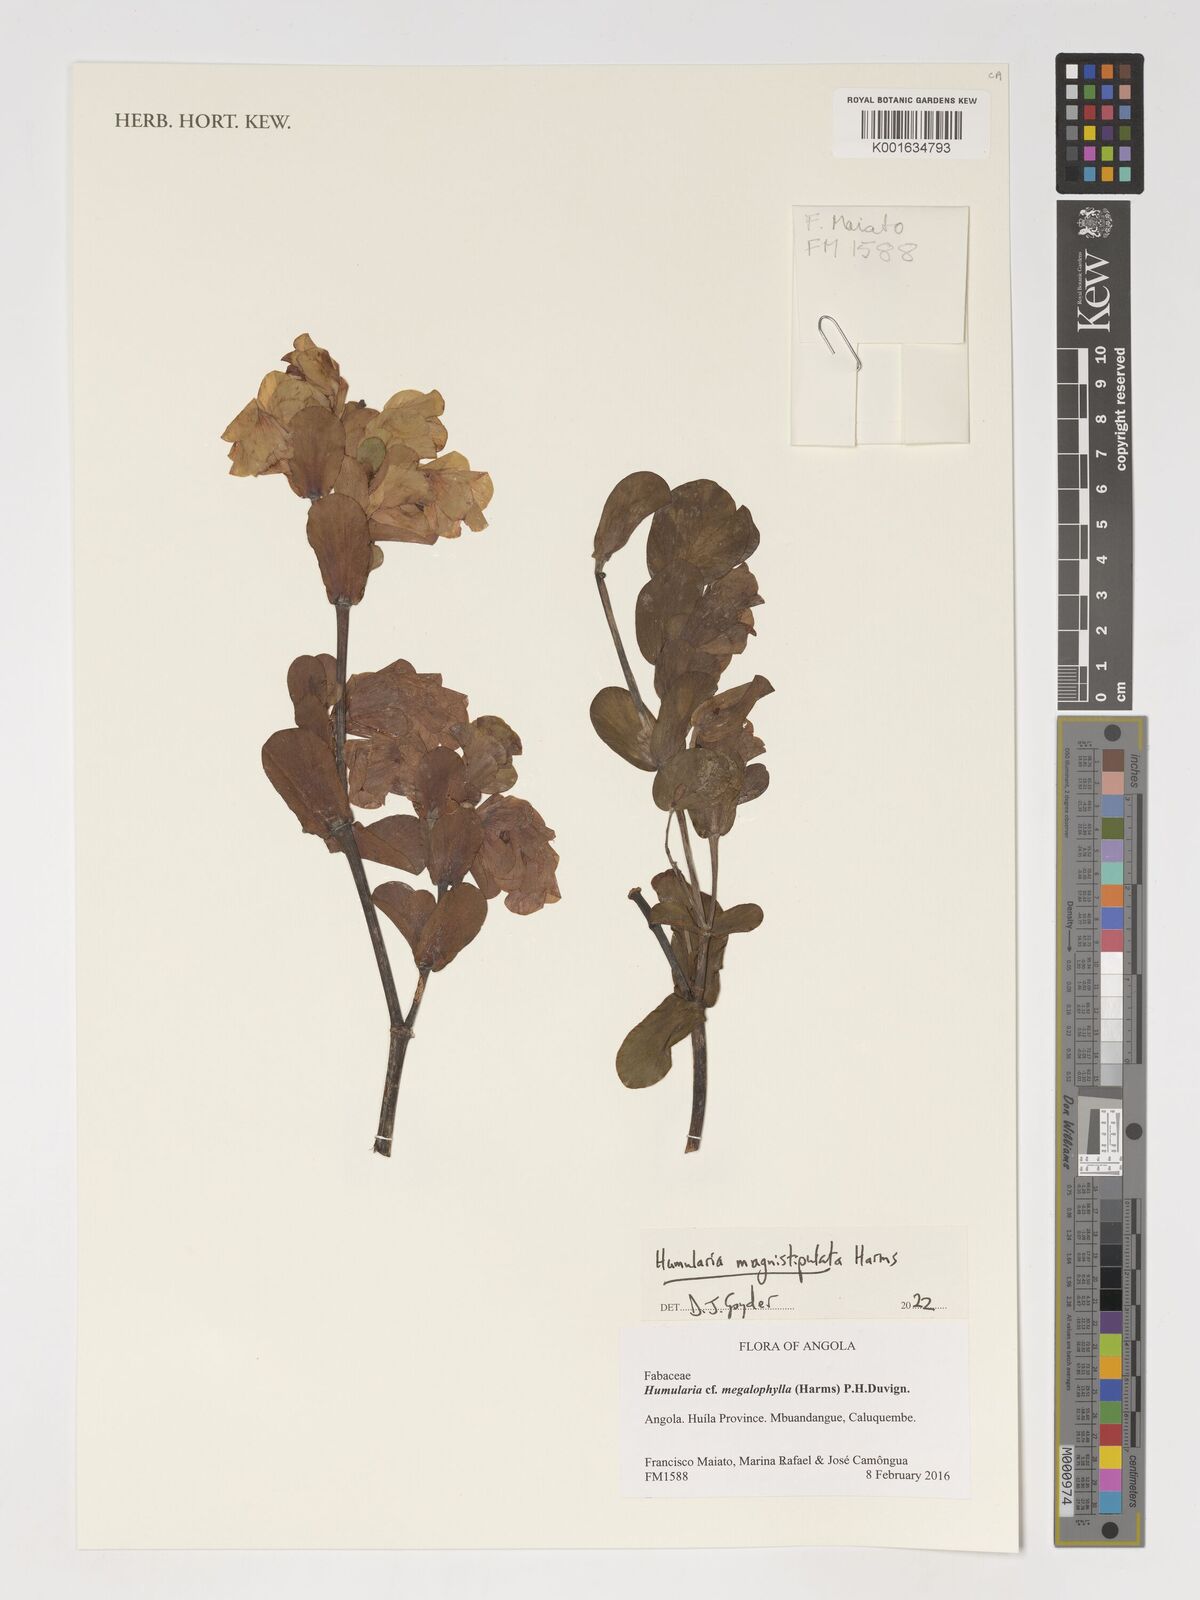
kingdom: Plantae
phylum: Tracheophyta
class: Magnoliopsida
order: Fabales
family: Fabaceae
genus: Humularia
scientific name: Humularia magnistipulata
